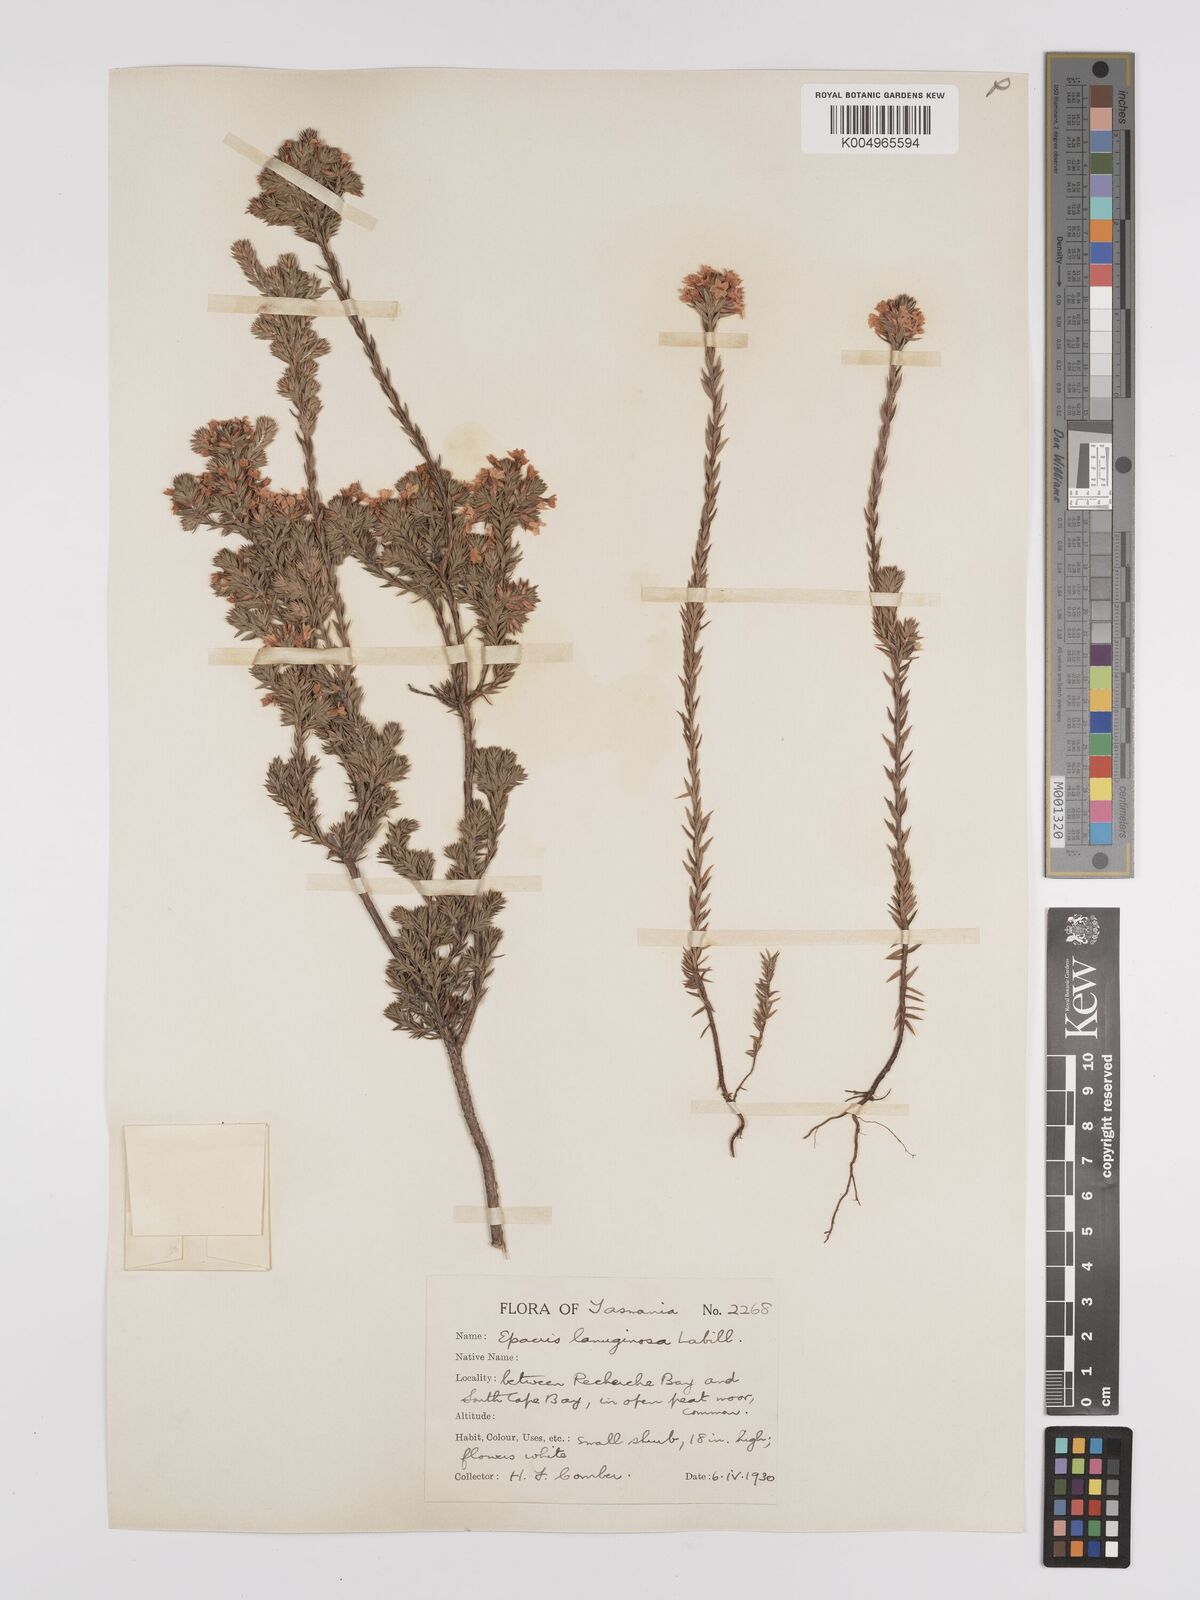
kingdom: Plantae
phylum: Tracheophyta
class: Magnoliopsida
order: Ericales
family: Ericaceae
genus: Epacris
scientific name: Epacris lanuginosa
